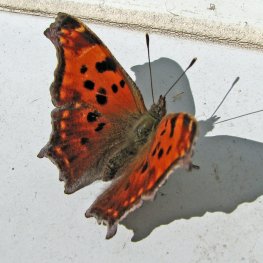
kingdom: Animalia
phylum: Arthropoda
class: Insecta
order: Lepidoptera
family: Nymphalidae
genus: Polygonia
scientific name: Polygonia comma
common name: Eastern Comma
